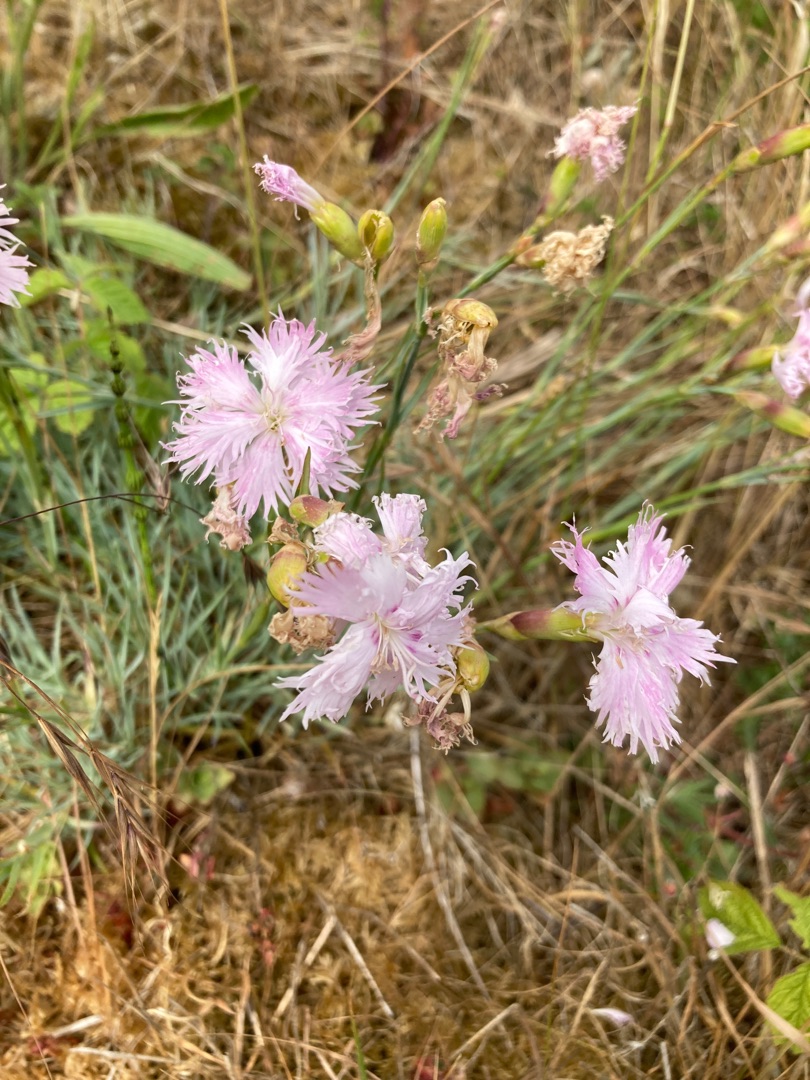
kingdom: Plantae
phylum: Tracheophyta
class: Magnoliopsida
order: Caryophyllales
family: Caryophyllaceae
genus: Dianthus
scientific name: Dianthus plumarius
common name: Fjernellike
